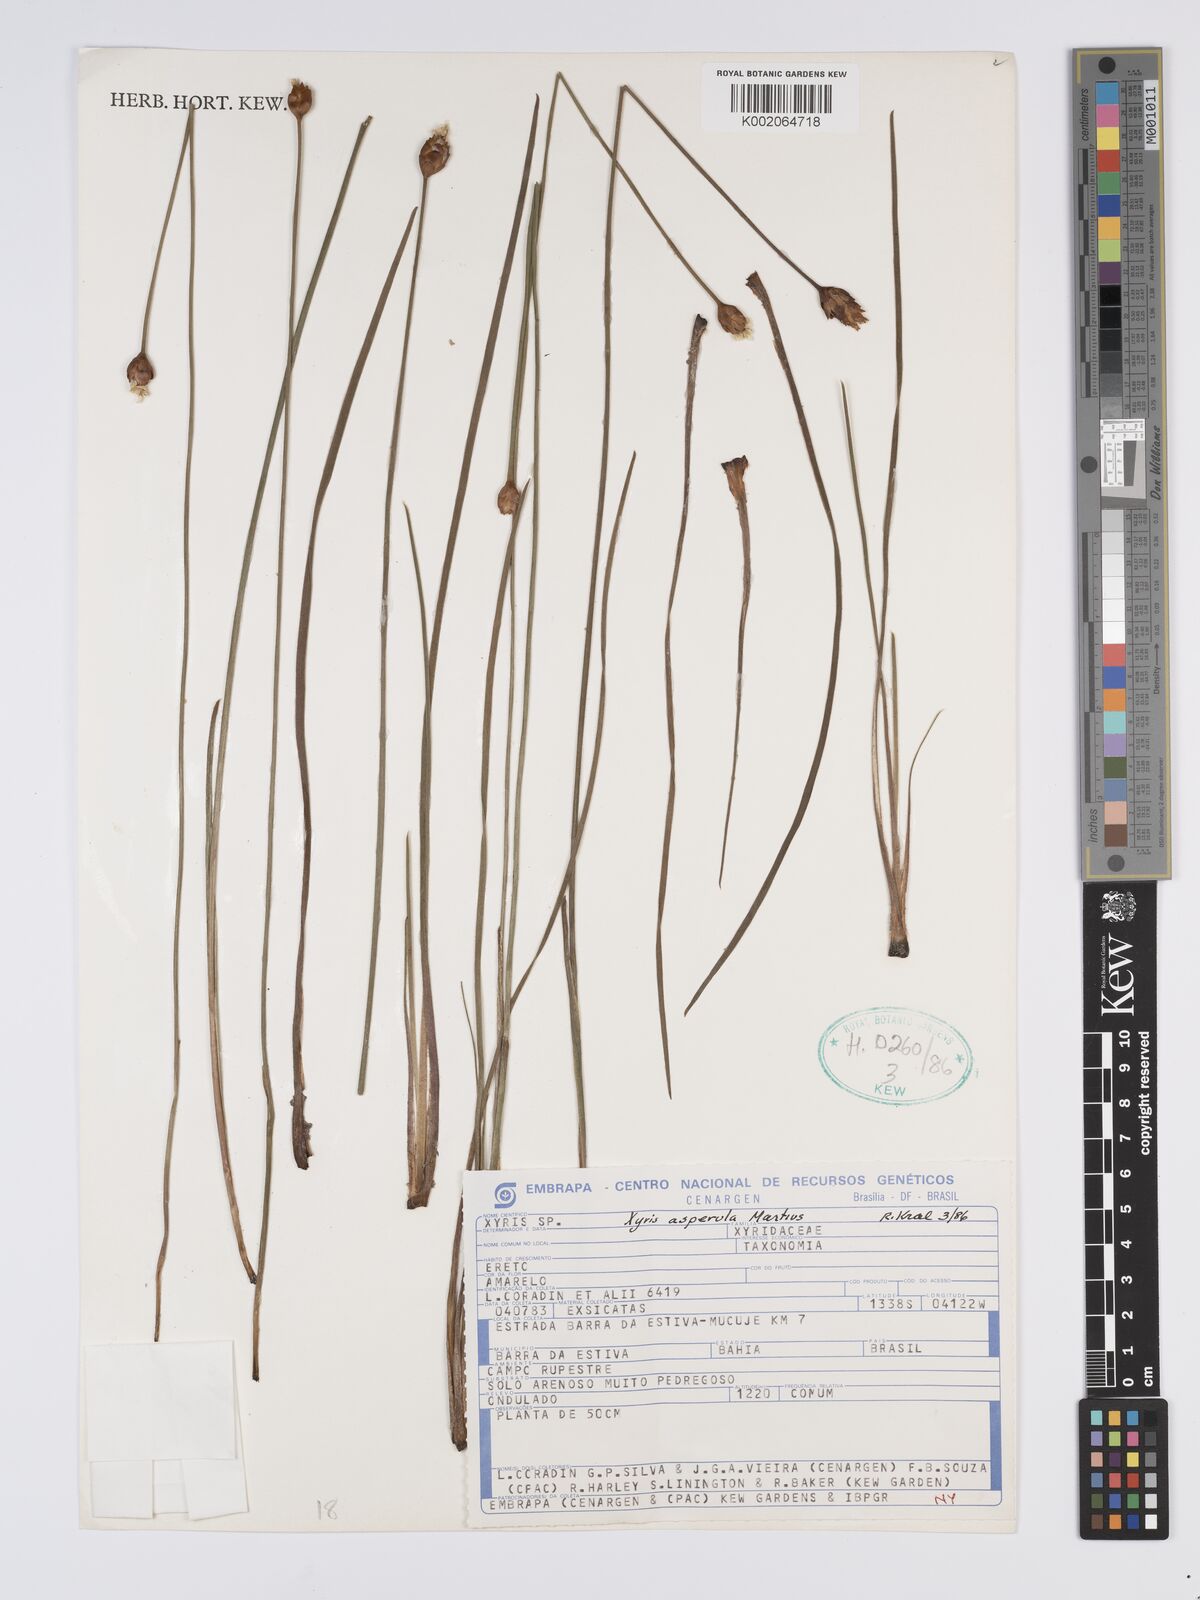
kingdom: Plantae
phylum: Tracheophyta
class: Liliopsida
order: Poales
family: Xyridaceae
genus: Xyris
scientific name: Xyris asperula
